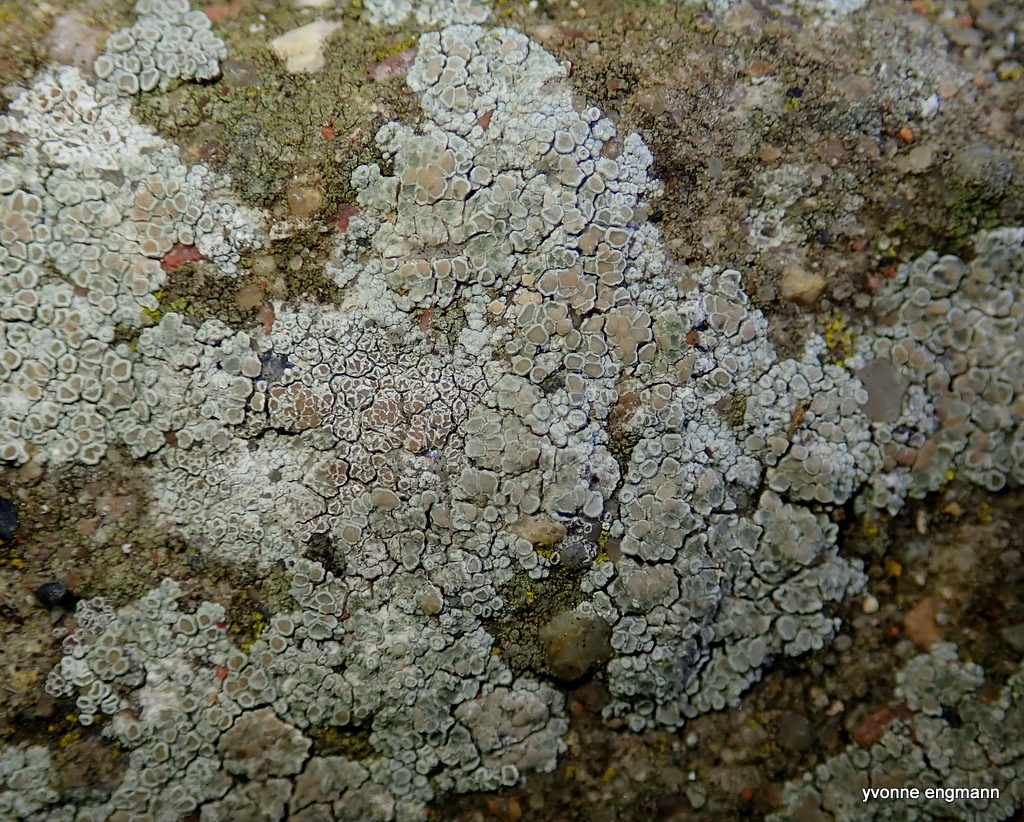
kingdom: Fungi
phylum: Ascomycota
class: Lecanoromycetes
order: Lecanorales
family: Lecanoraceae
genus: Polyozosia
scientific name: Polyozosia albescens
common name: cement-kantskivelav
